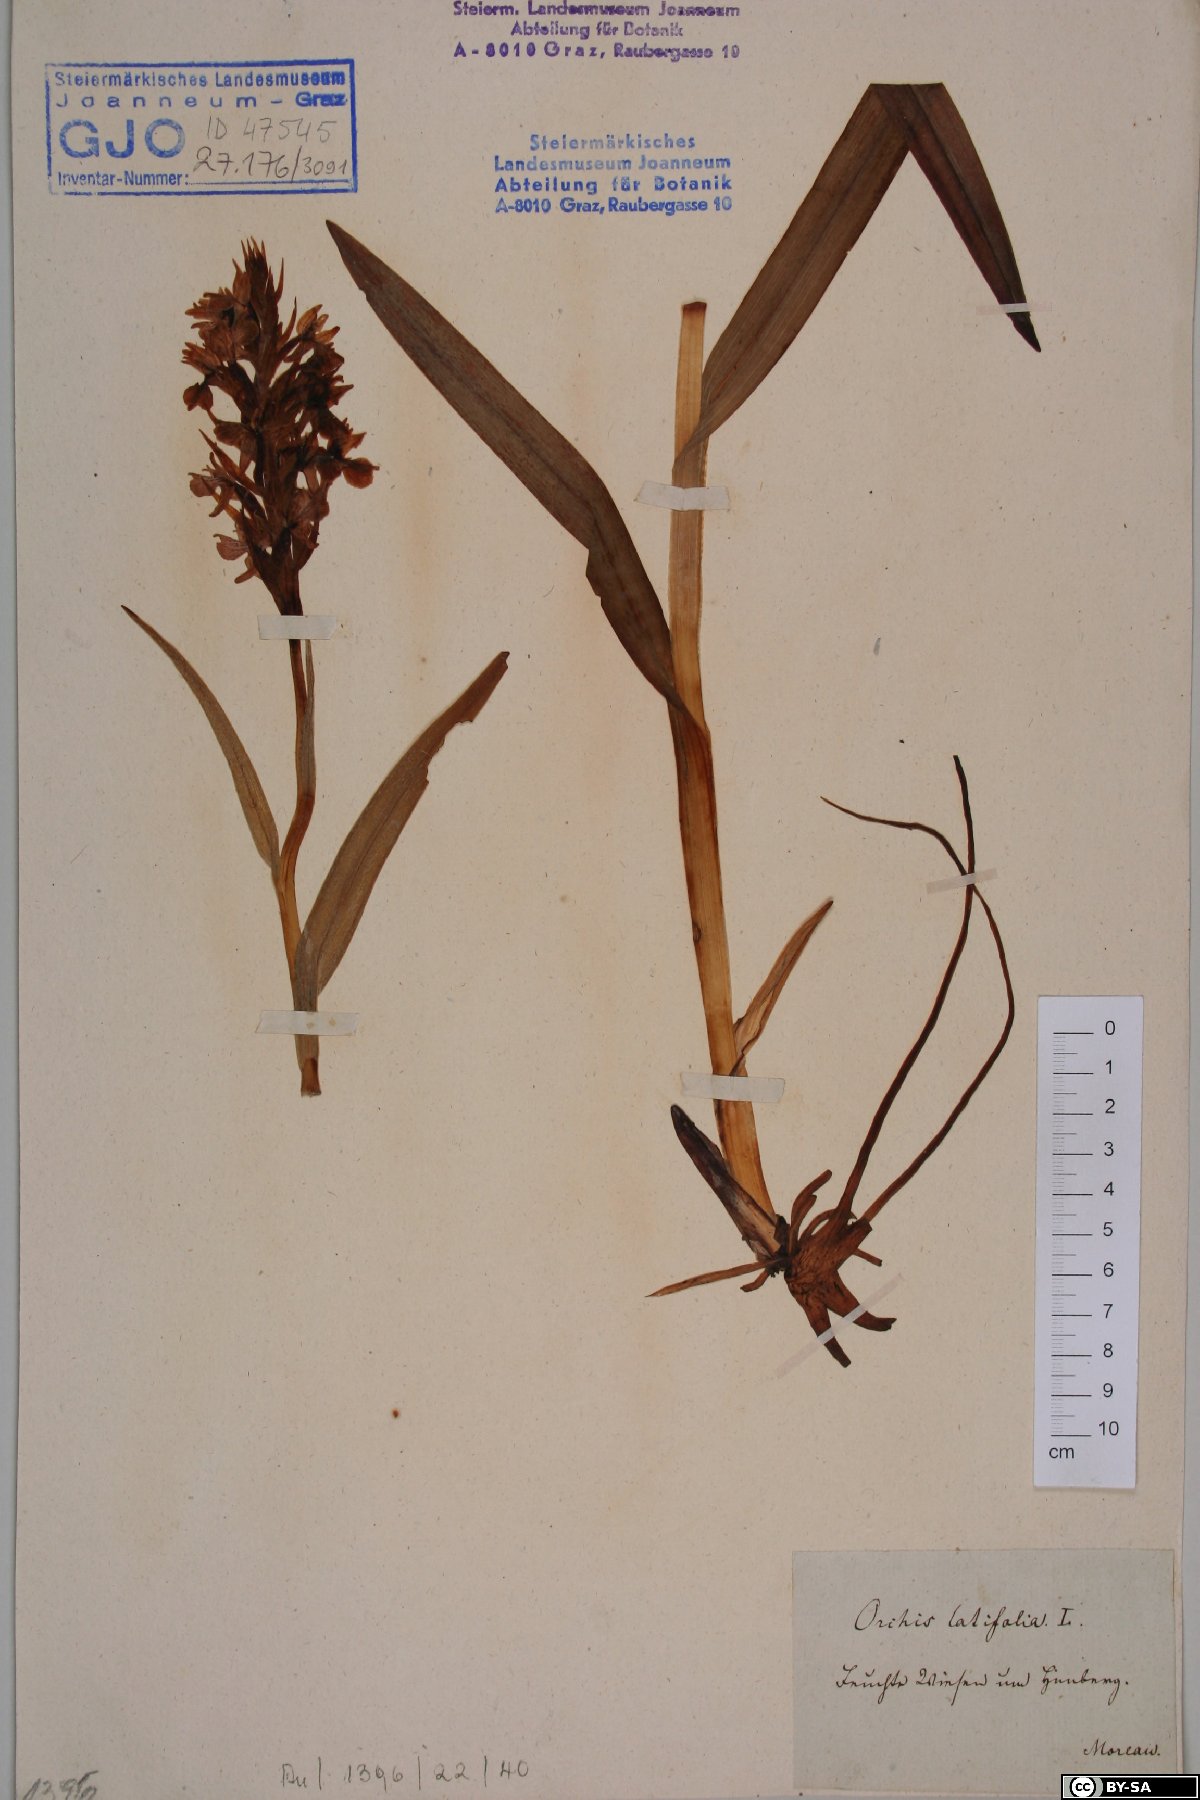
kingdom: Plantae
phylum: Tracheophyta
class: Liliopsida
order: Asparagales
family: Orchidaceae
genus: Dactylorhiza
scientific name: Dactylorhiza incarnata
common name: Early marsh-orchid
